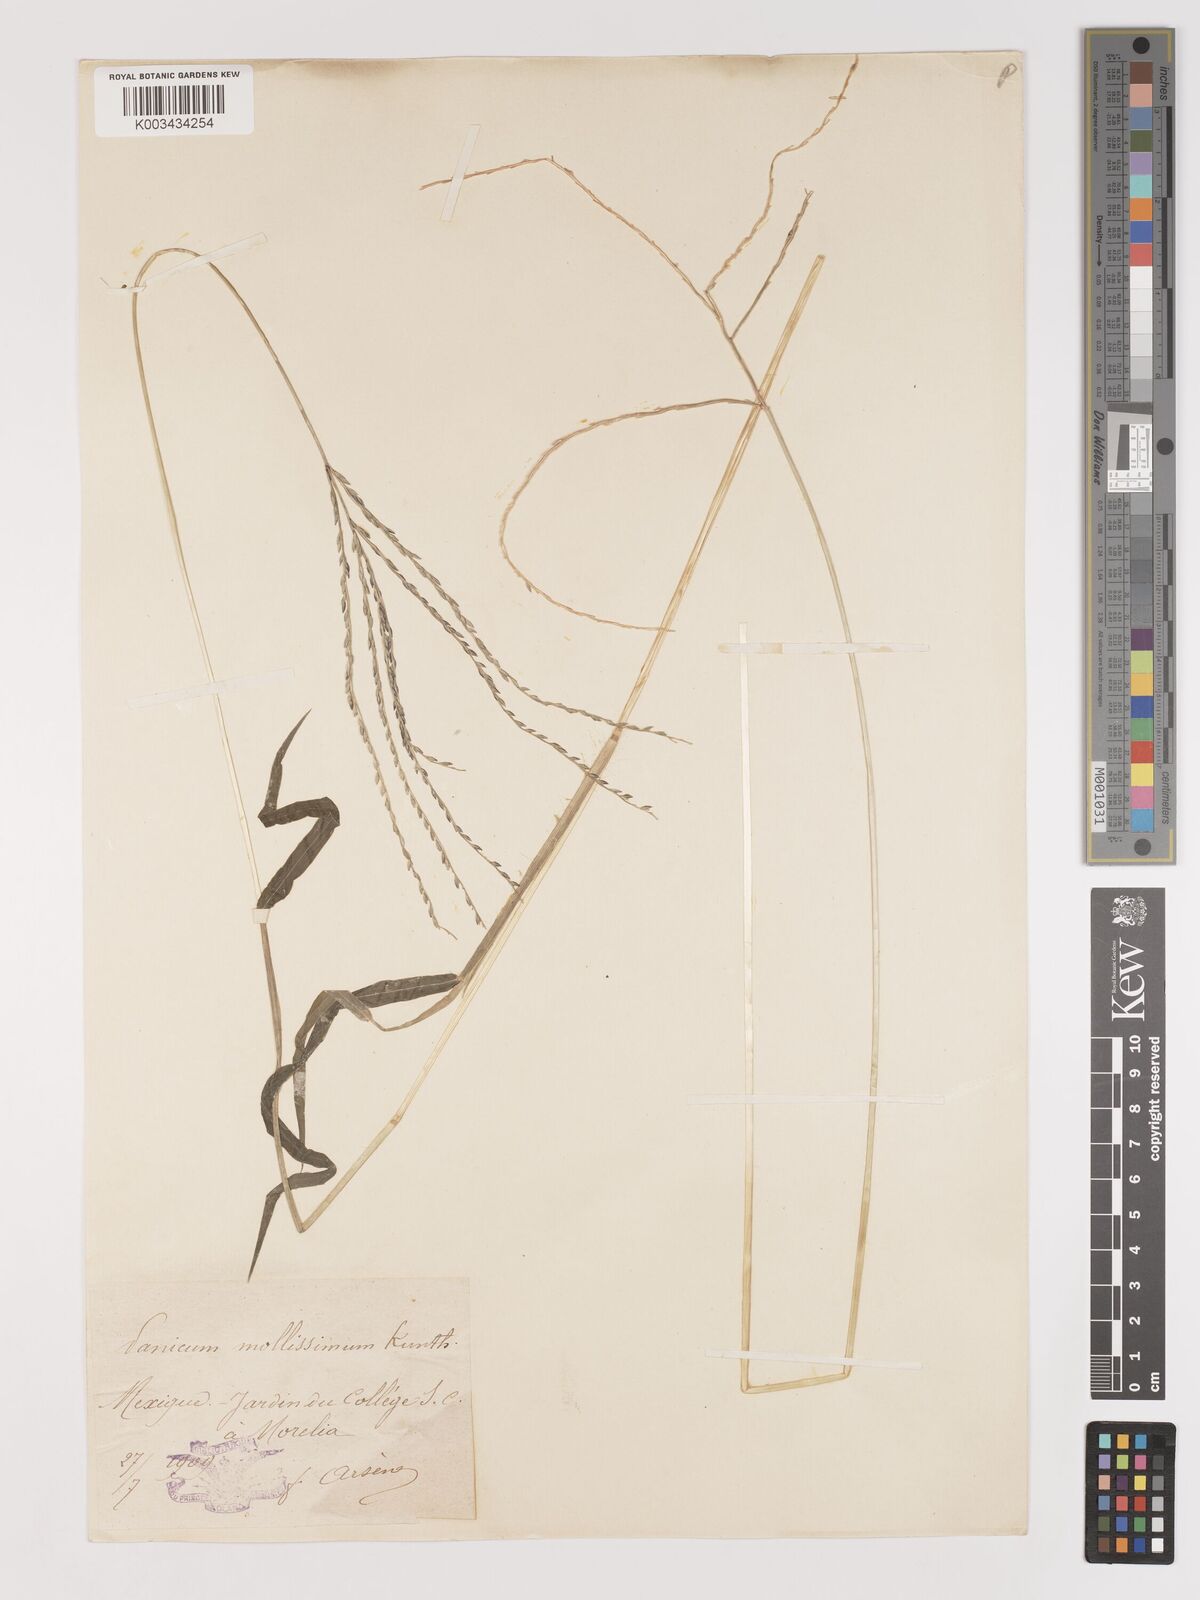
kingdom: Plantae
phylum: Tracheophyta
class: Liliopsida
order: Poales
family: Poaceae
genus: Digitaria
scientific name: Digitaria leucites
